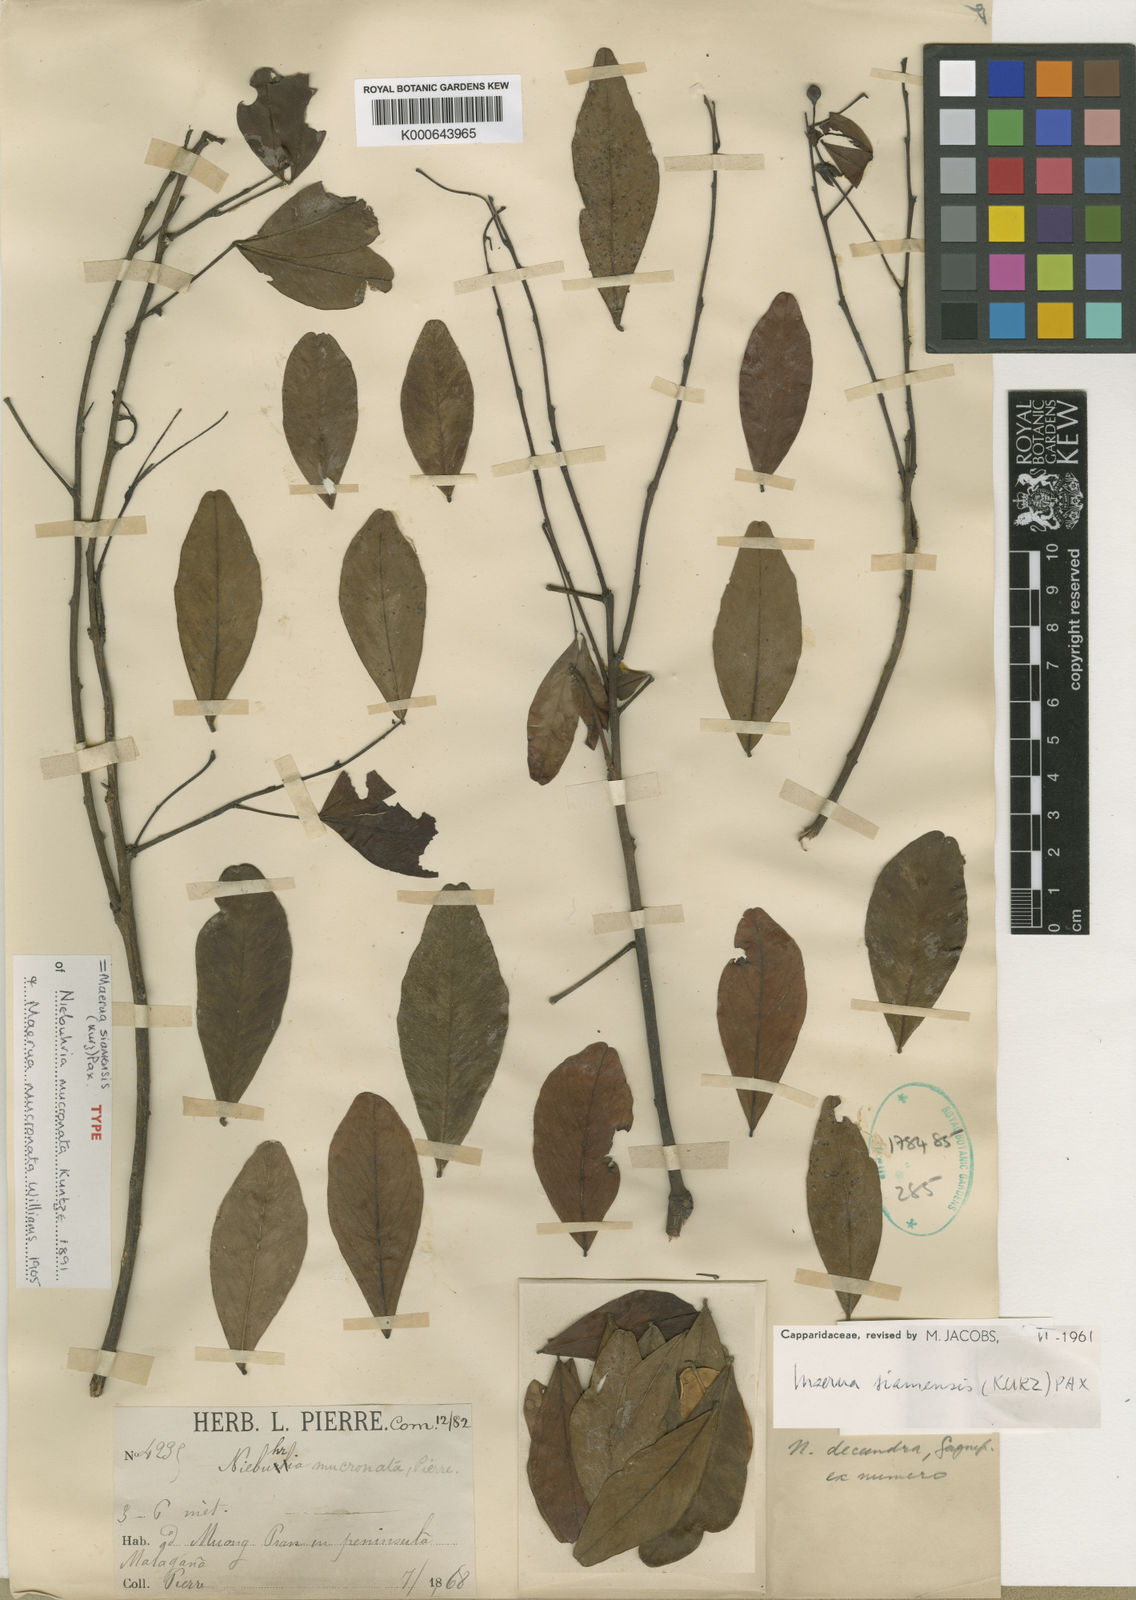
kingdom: Plantae
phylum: Tracheophyta
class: Magnoliopsida
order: Brassicales
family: Capparaceae
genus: Maerua
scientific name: Maerua siamensis
